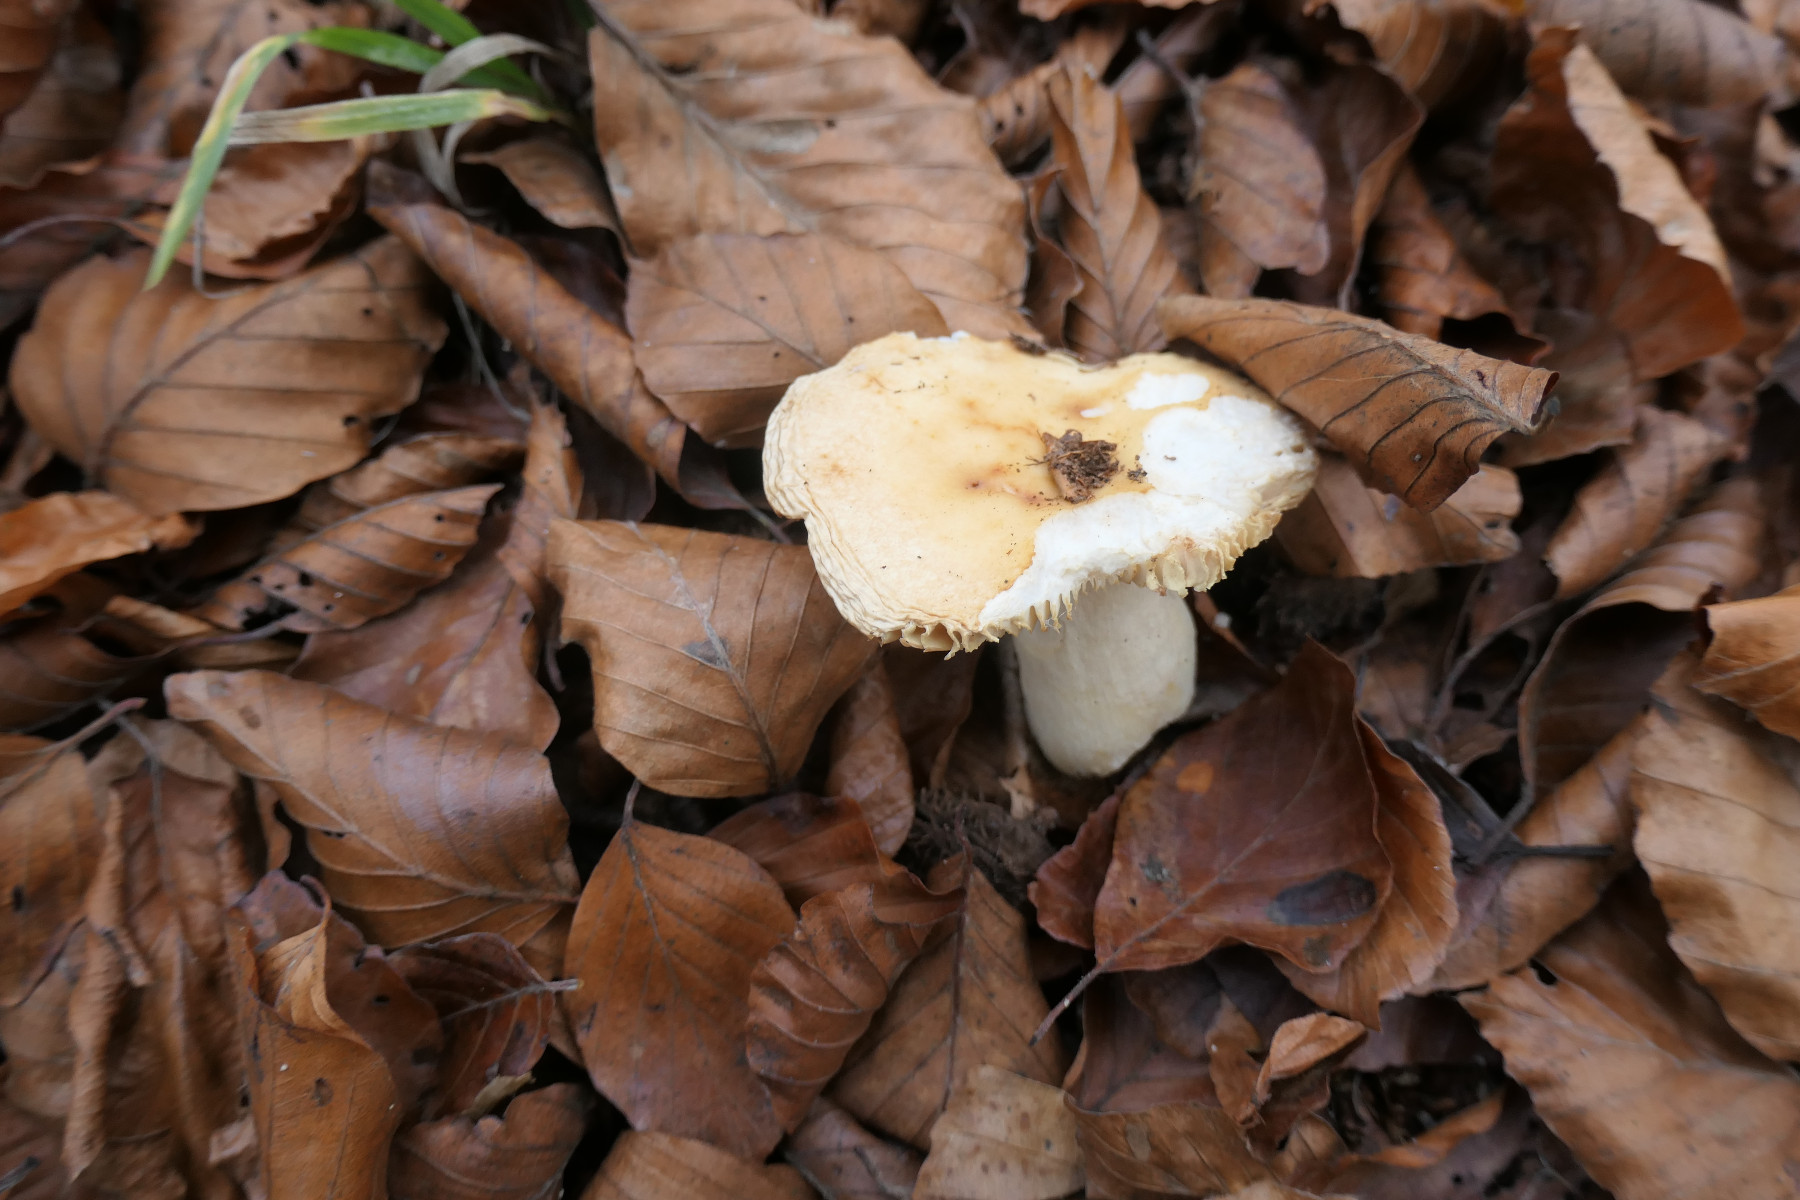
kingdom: Fungi
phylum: Basidiomycota
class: Agaricomycetes
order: Russulales
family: Russulaceae
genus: Russula
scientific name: Russula fellea
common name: galde-skørhat
